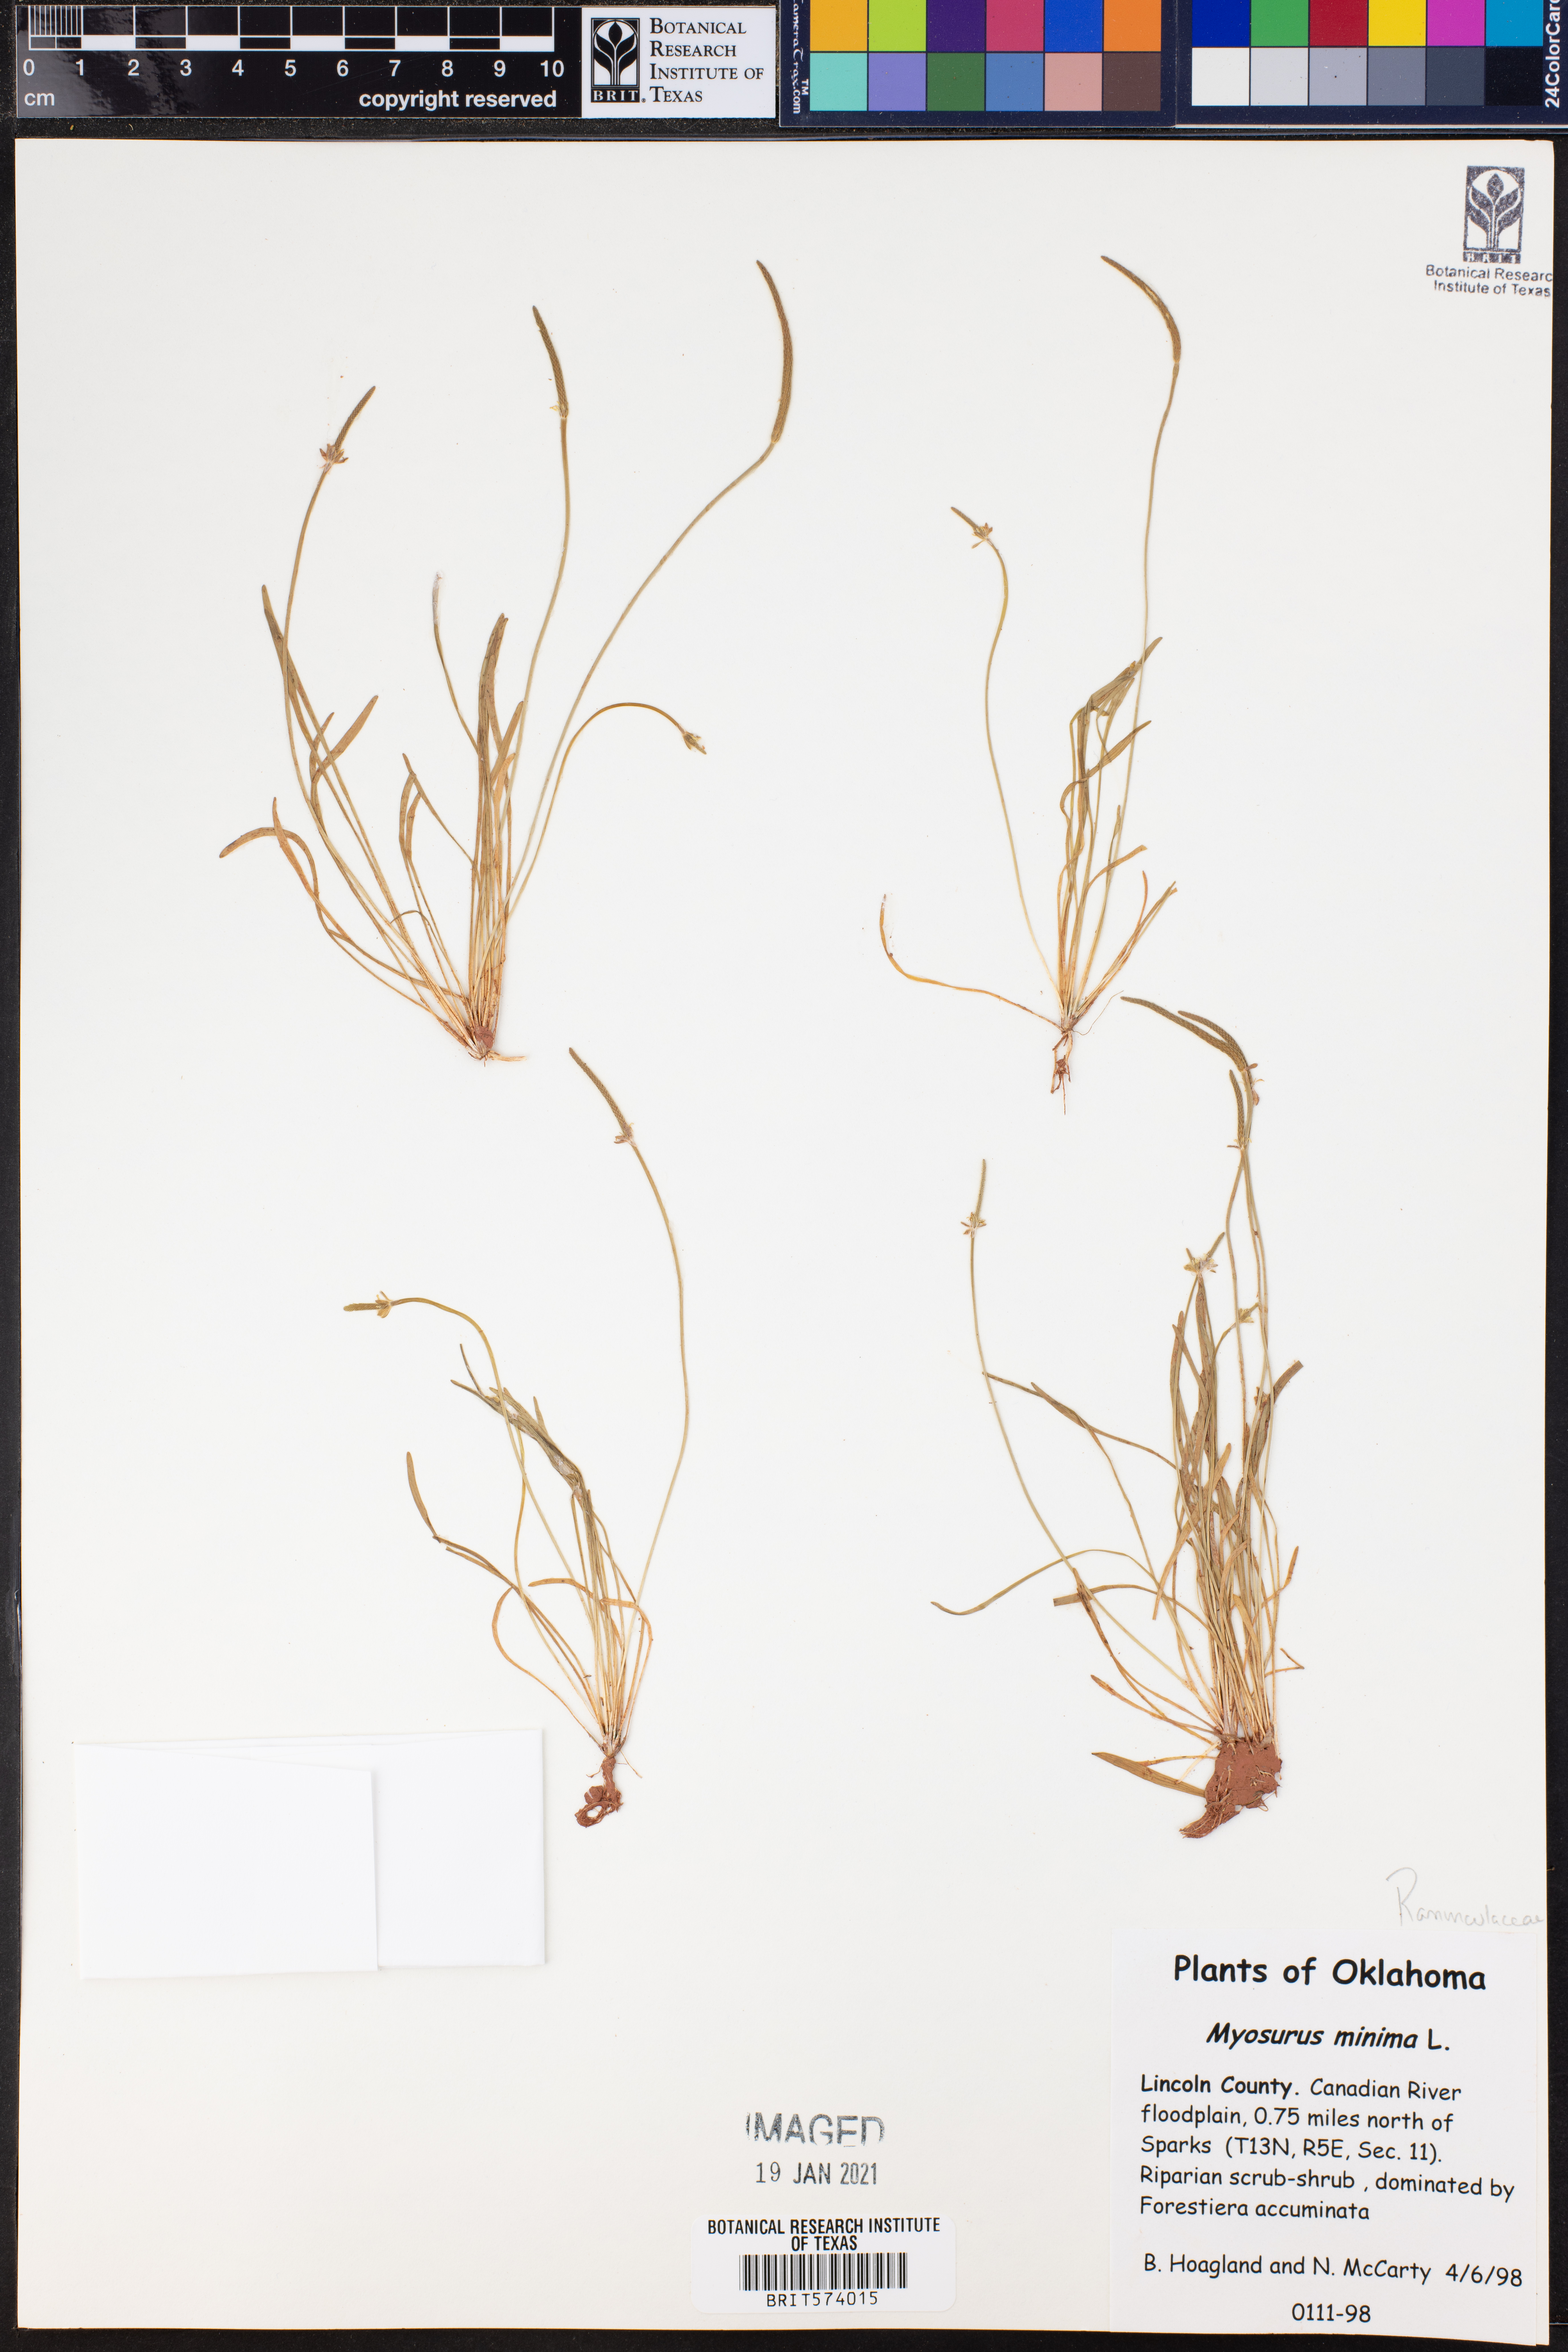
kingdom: Plantae
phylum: Tracheophyta
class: Magnoliopsida
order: Ranunculales
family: Ranunculaceae
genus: Myosurus
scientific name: Myosurus minimus
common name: Mousetail
